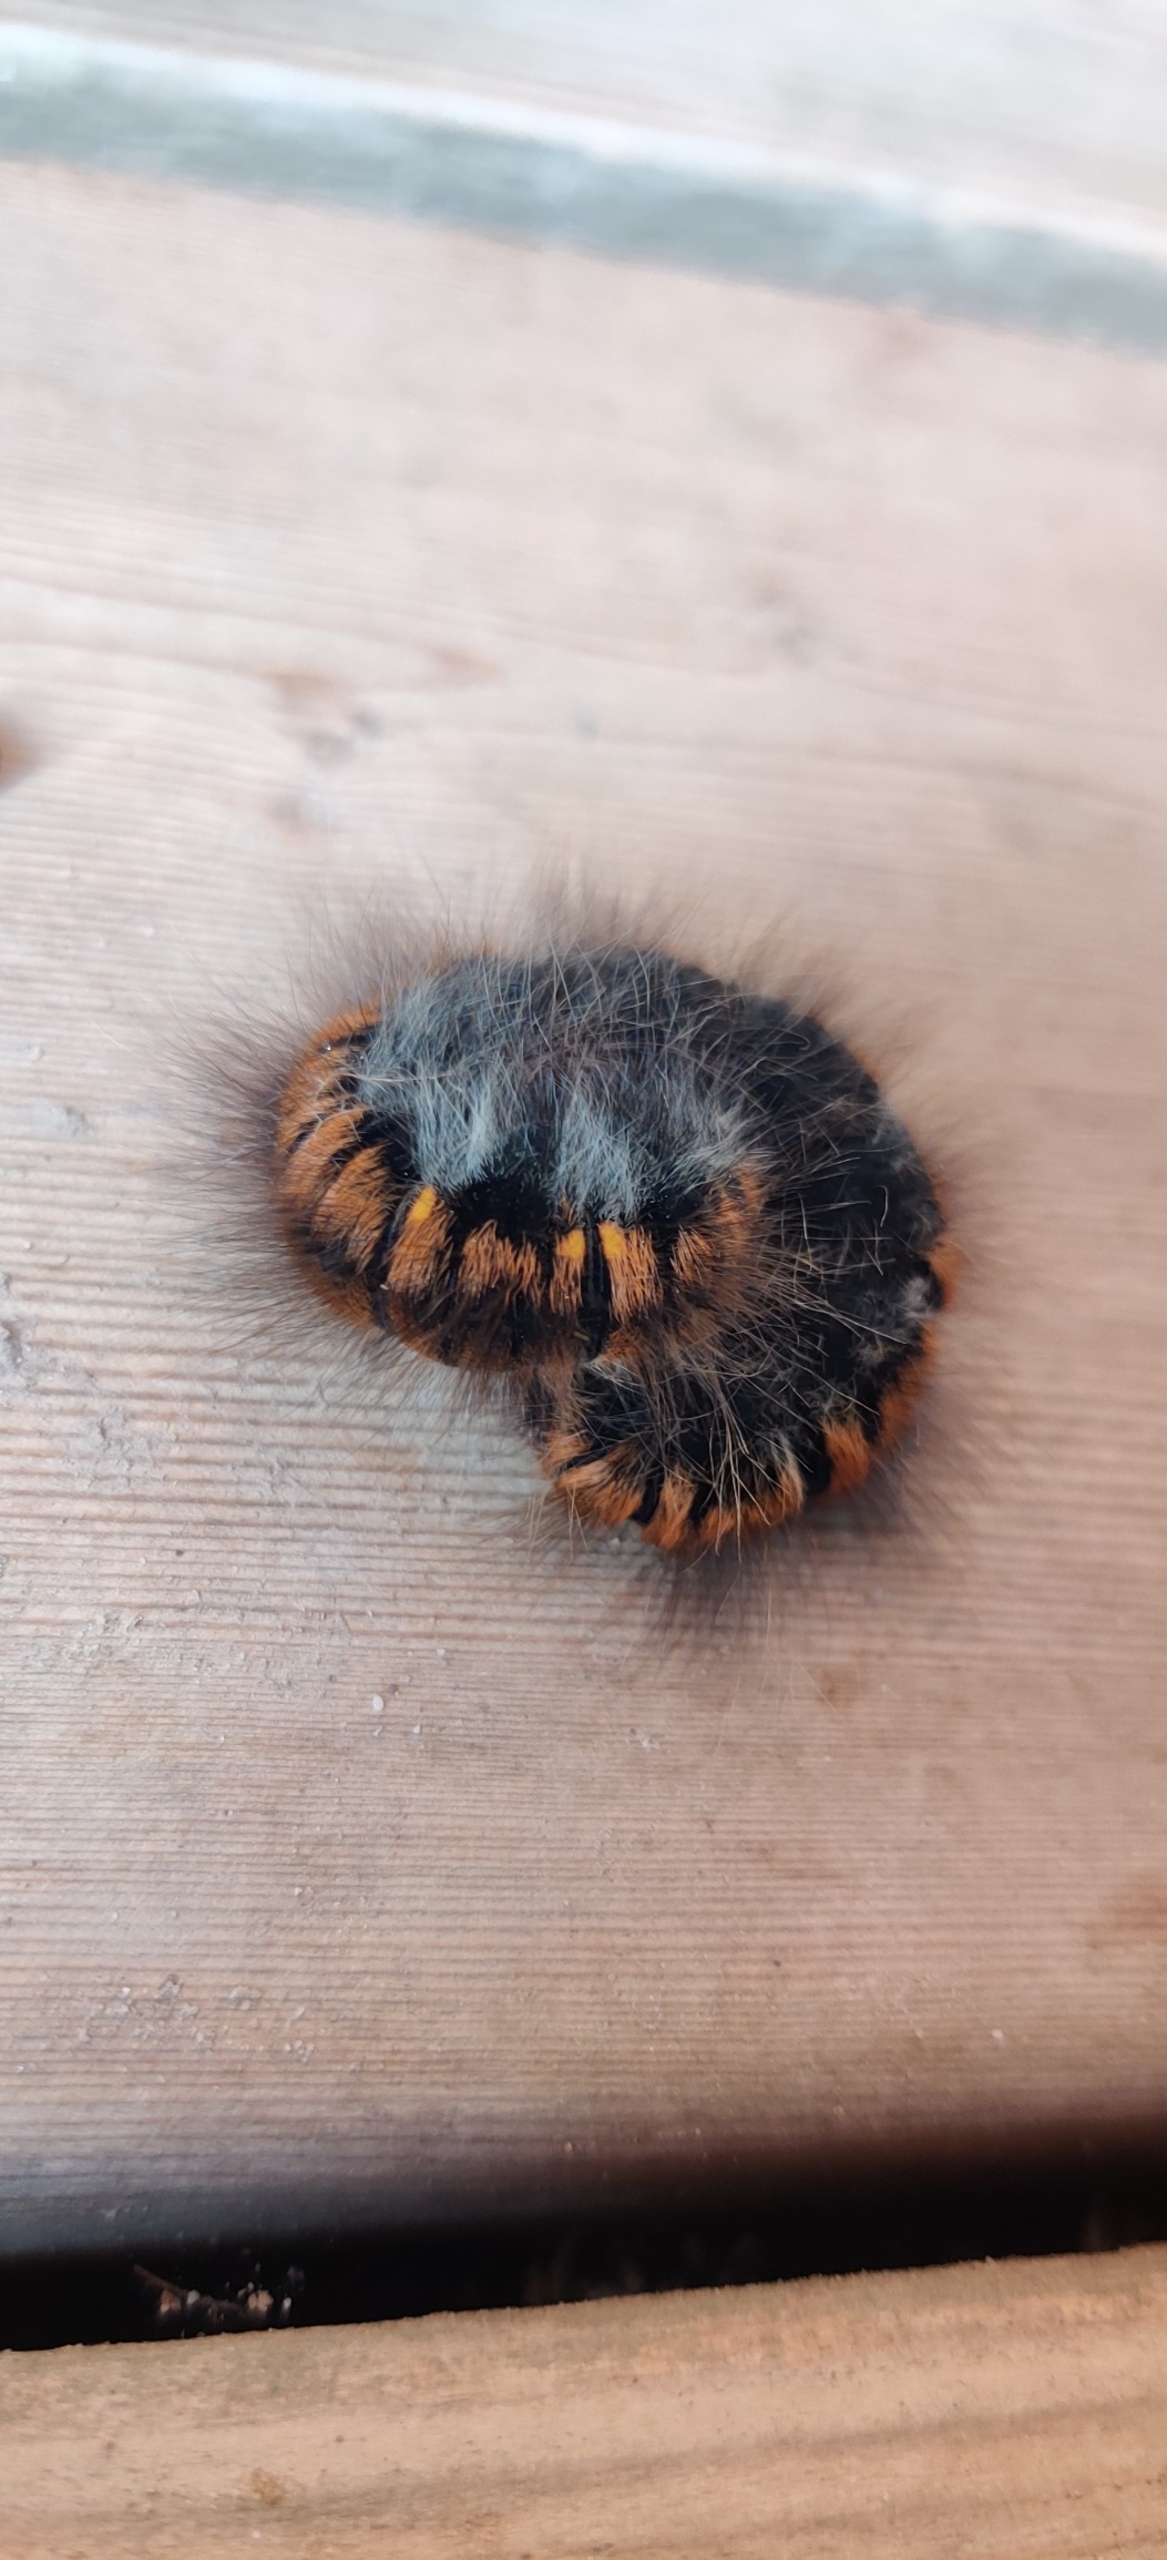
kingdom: Animalia
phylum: Arthropoda
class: Insecta
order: Lepidoptera
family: Lasiocampidae
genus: Macrothylacia
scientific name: Macrothylacia rubi
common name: Brombærspinder
